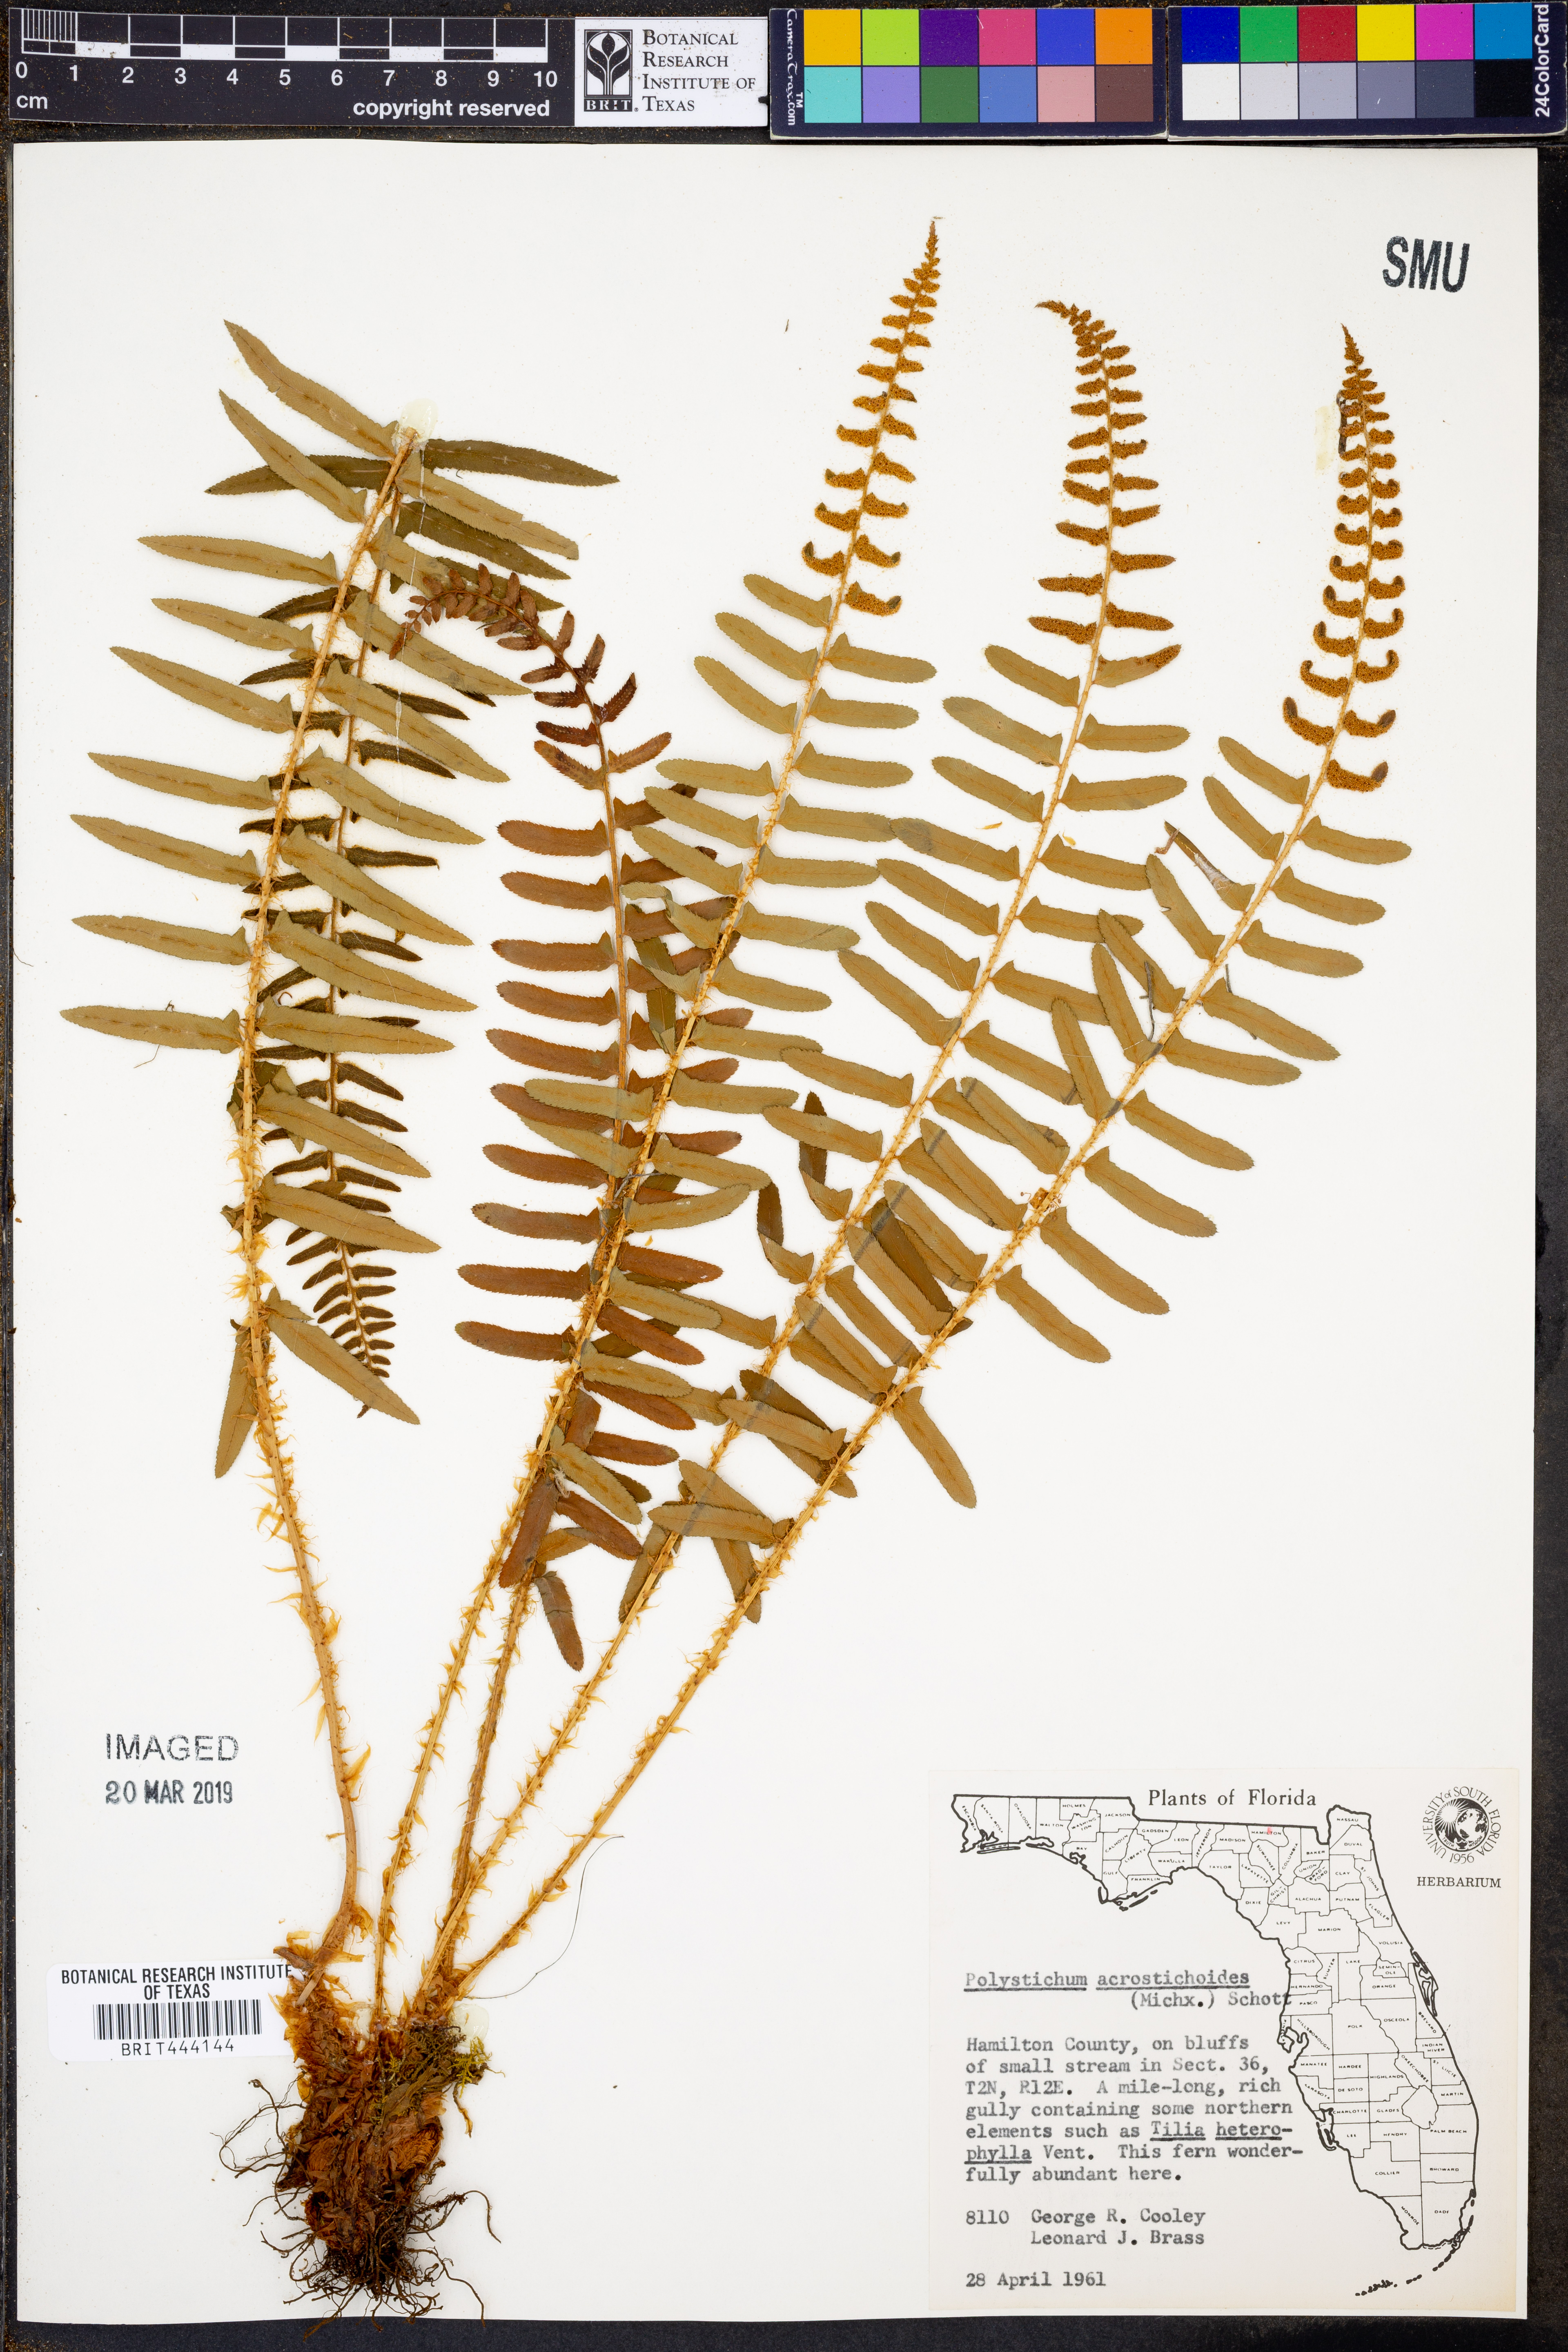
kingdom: Plantae
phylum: Tracheophyta
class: Polypodiopsida
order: Polypodiales
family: Dryopteridaceae
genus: Polystichum
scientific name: Polystichum acrostichoides
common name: Christmas fern
